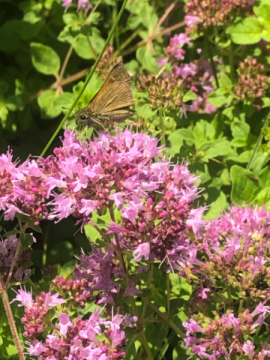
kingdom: Animalia
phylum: Arthropoda
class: Insecta
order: Lepidoptera
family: Hesperiidae
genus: Polites
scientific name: Polites themistocles
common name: Tawny-edged Skipper
